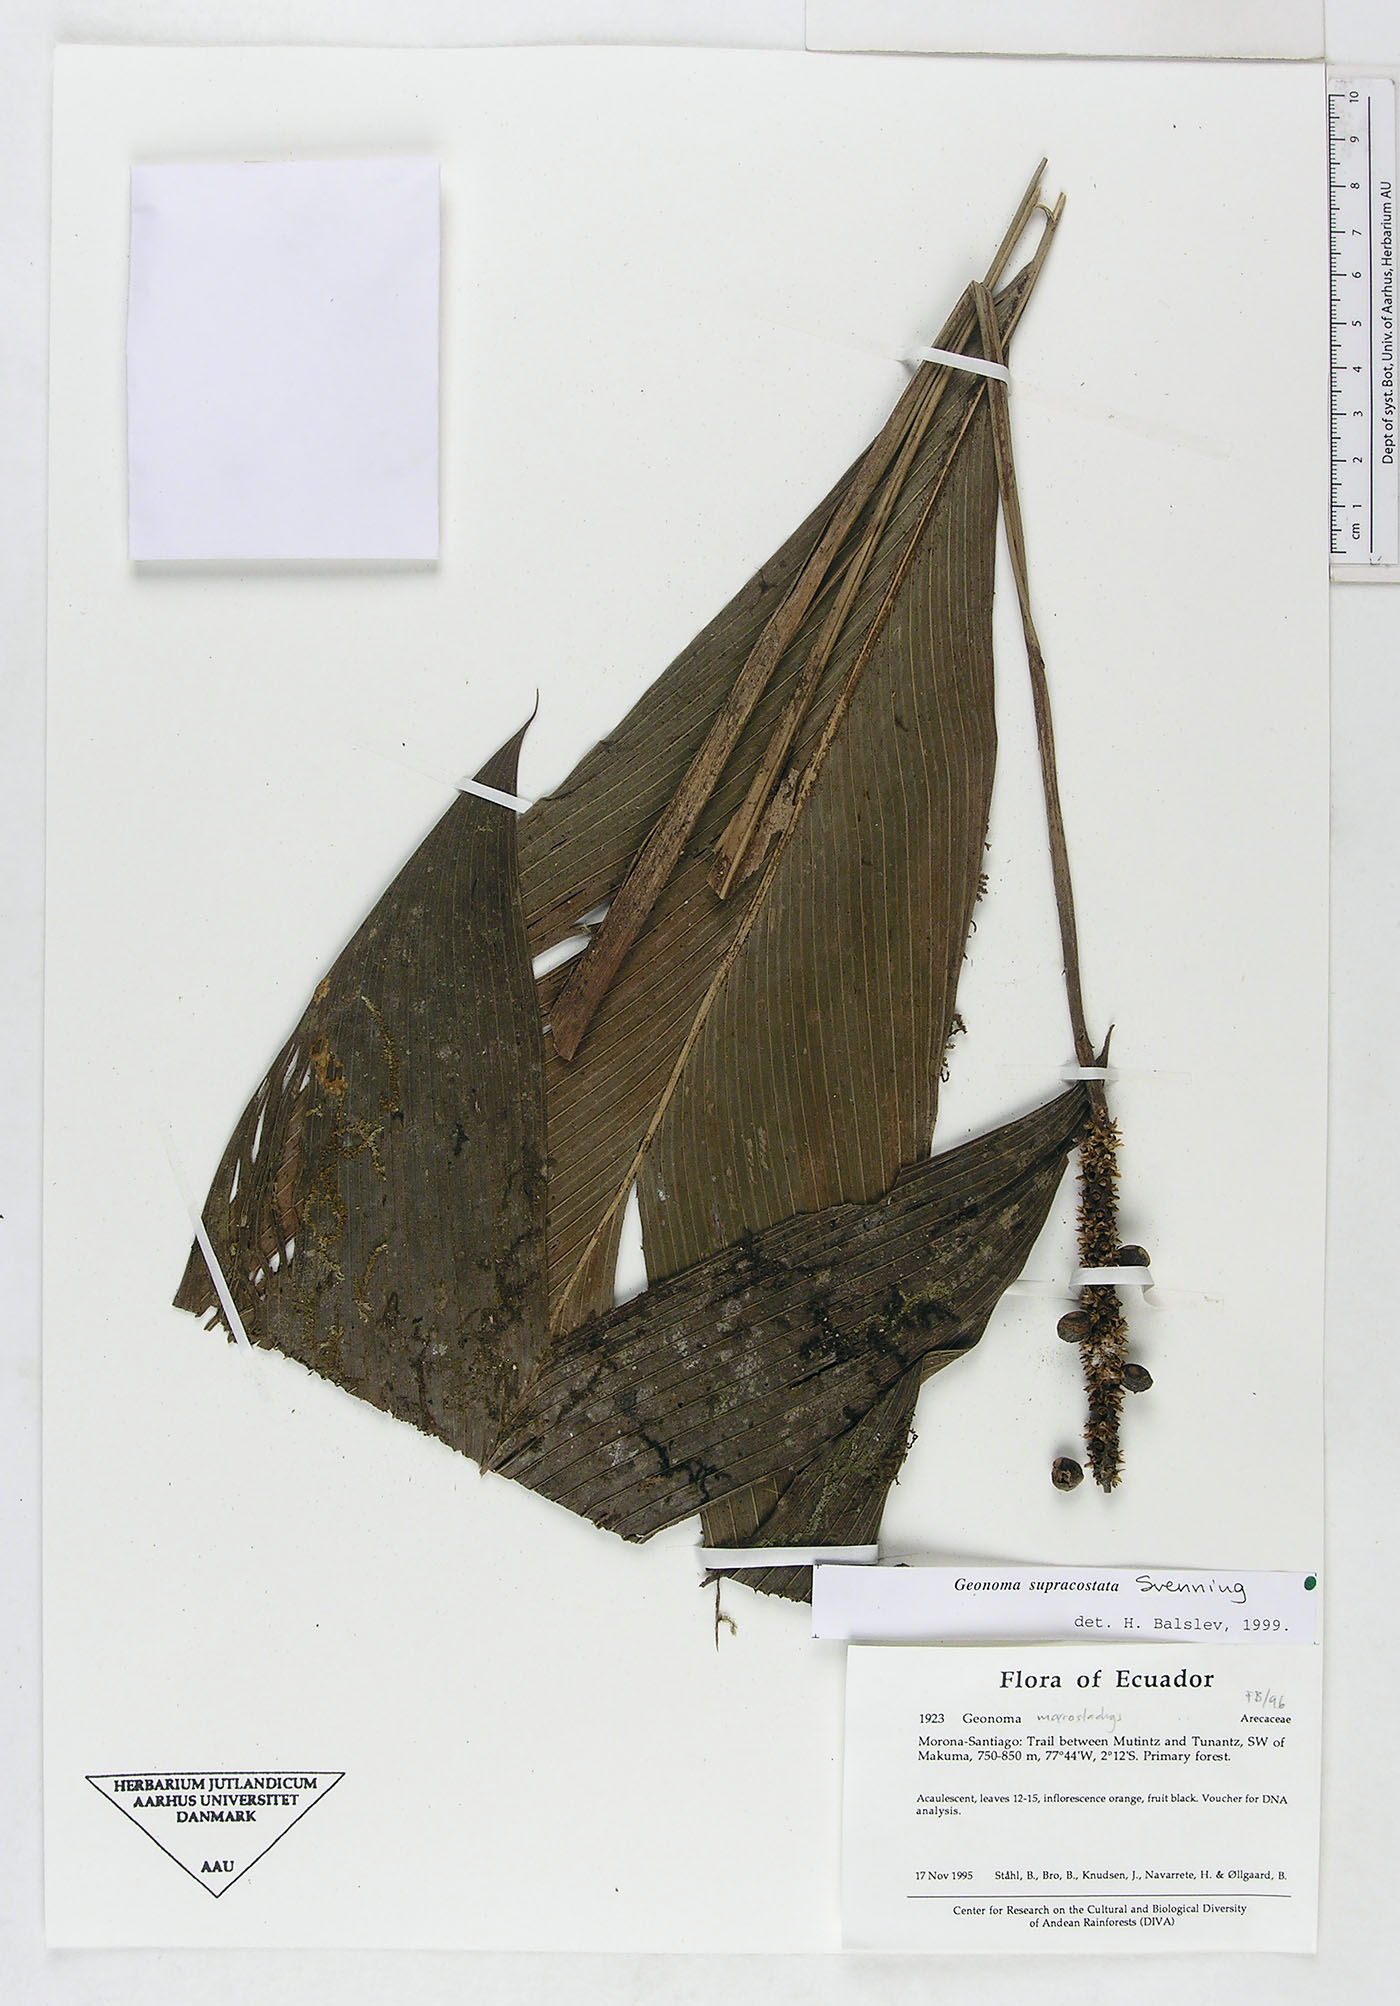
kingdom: Plantae
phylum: Tracheophyta
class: Liliopsida
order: Arecales
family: Arecaceae
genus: Geonoma
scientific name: Geonoma macrostachys
